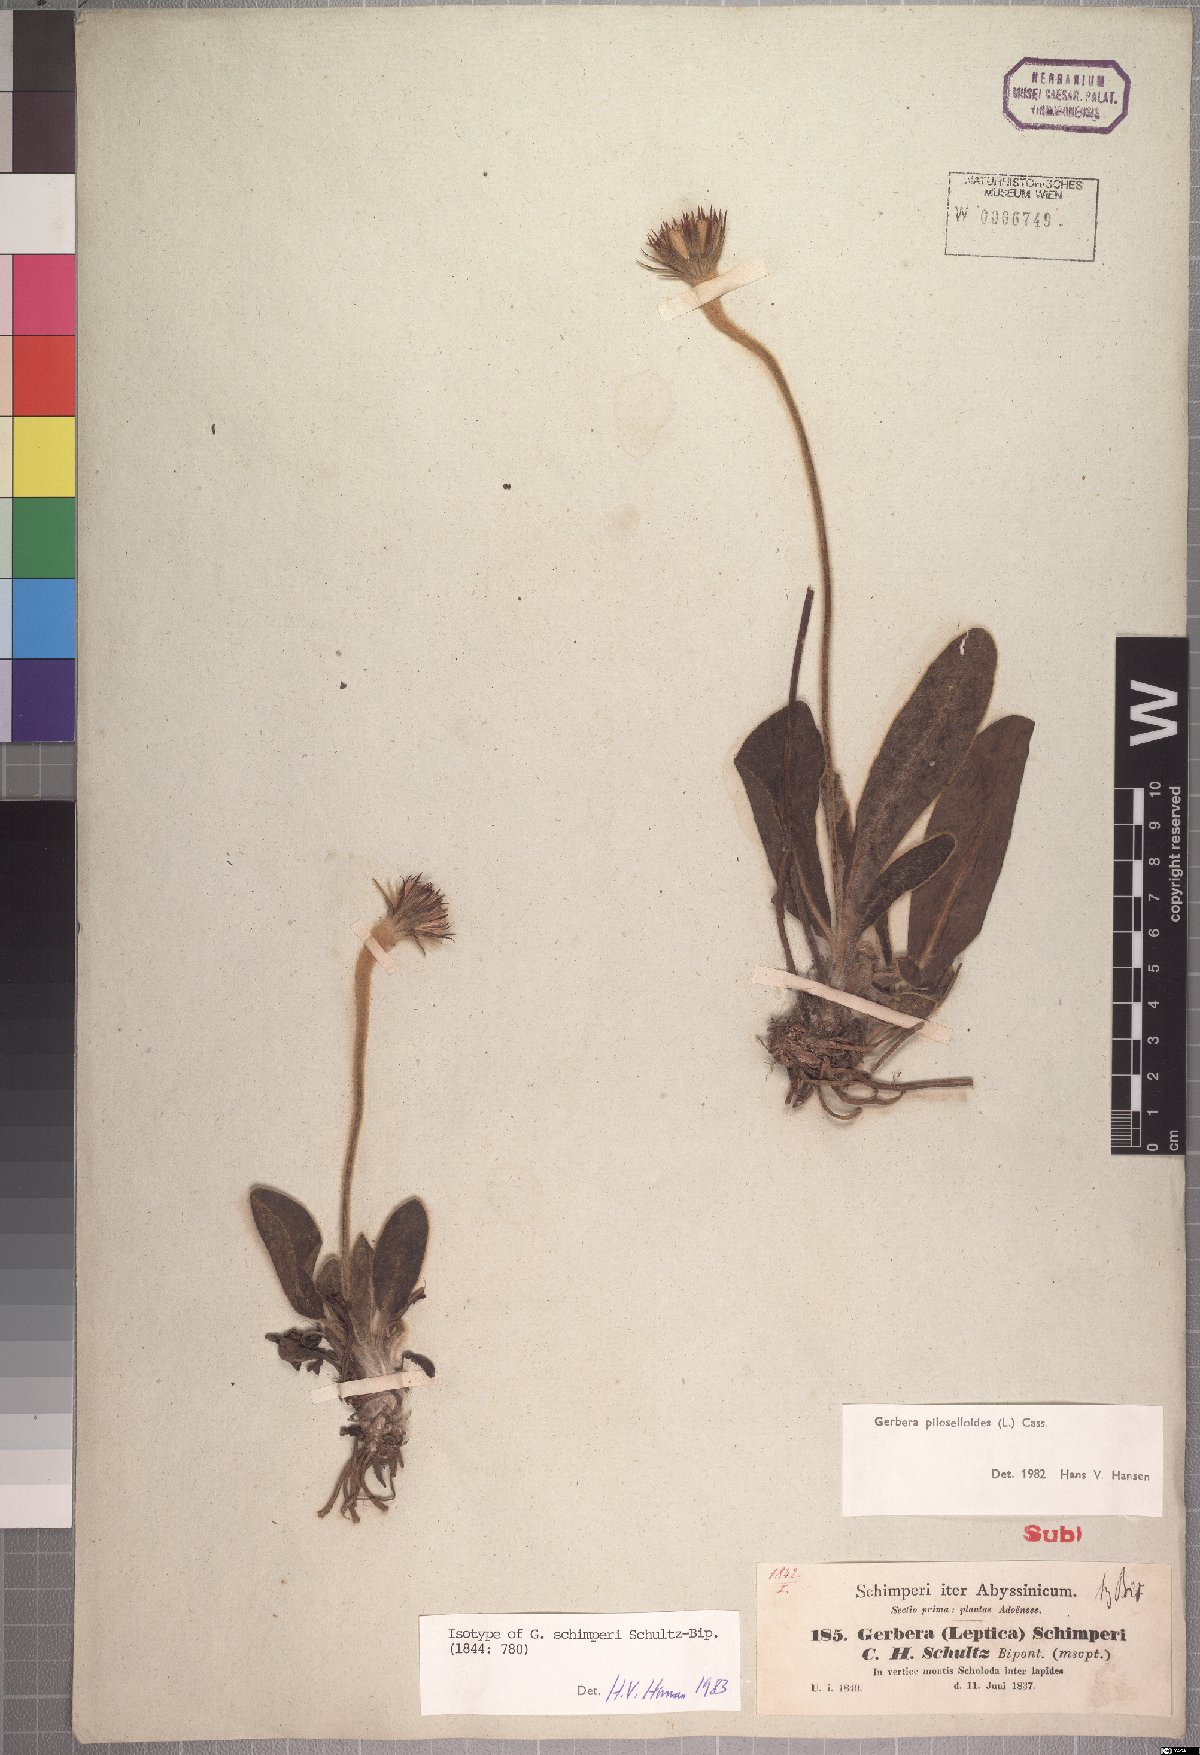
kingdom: Plantae
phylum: Tracheophyta
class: Magnoliopsida
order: Asterales
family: Asteraceae
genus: Piloselloides
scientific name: Piloselloides hirsuta
